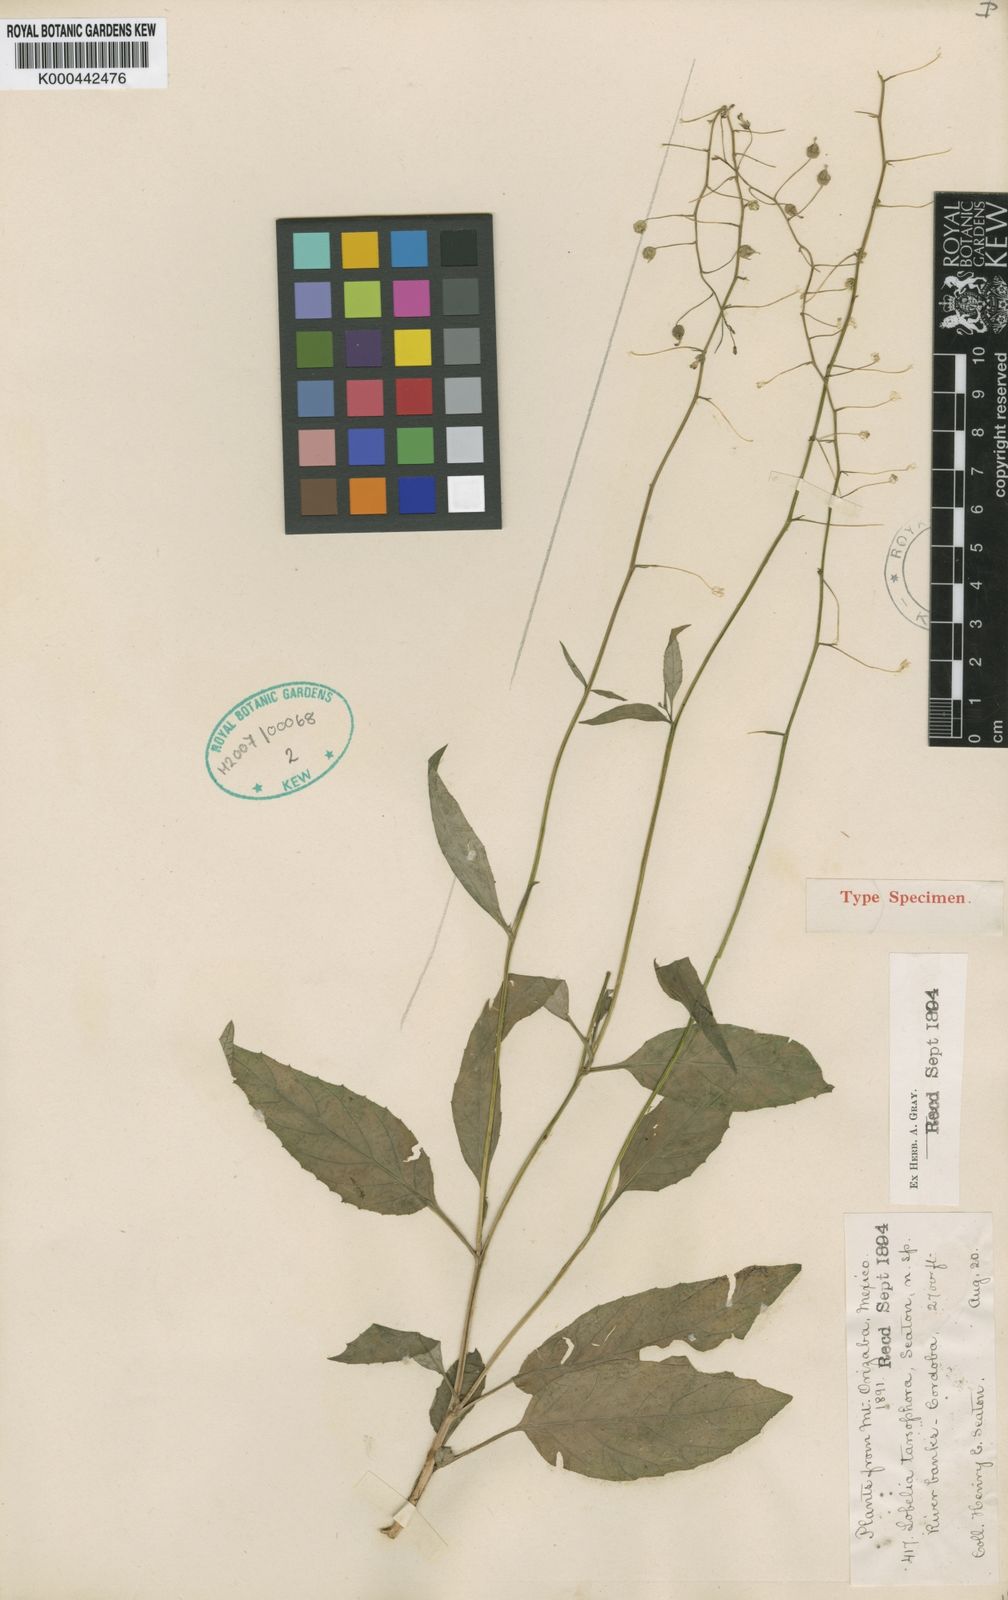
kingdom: Plantae
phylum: Tracheophyta
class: Magnoliopsida
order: Asterales
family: Campanulaceae
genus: Lobelia
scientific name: Lobelia
